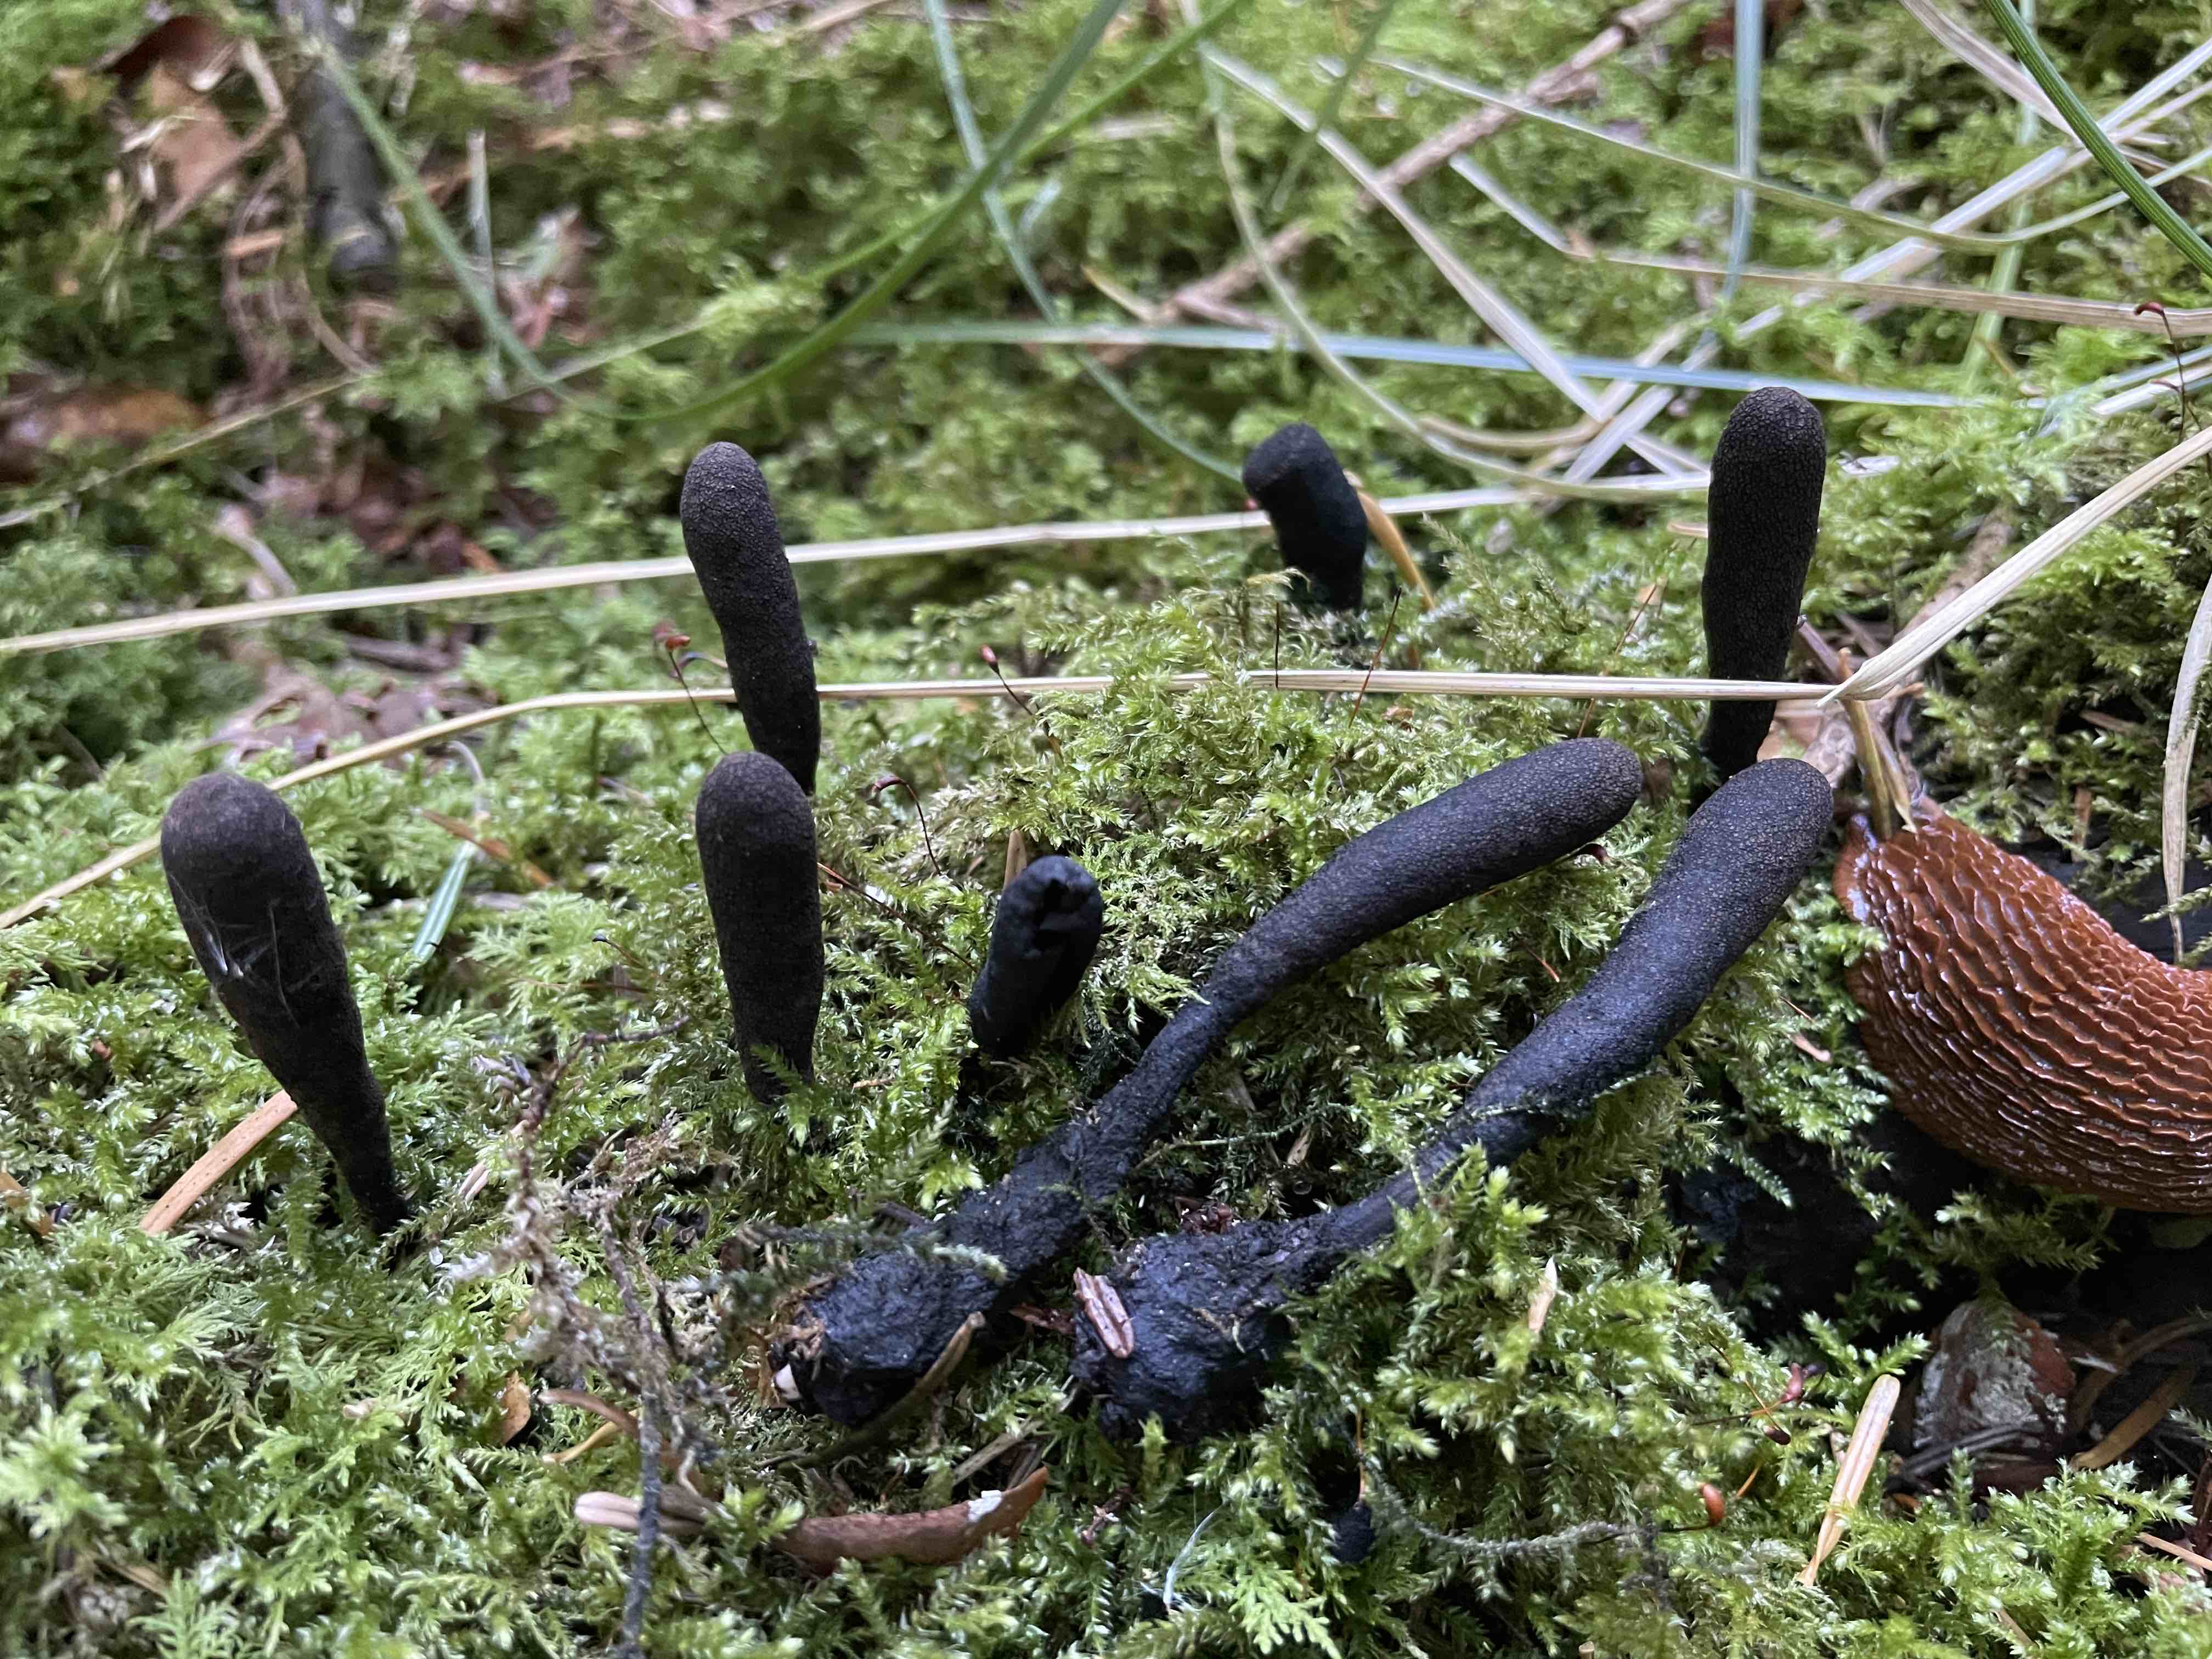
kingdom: Fungi
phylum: Ascomycota
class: Sordariomycetes
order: Xylariales
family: Xylariaceae
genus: Xylaria
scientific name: Xylaria longipes
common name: slank stødsvamp
